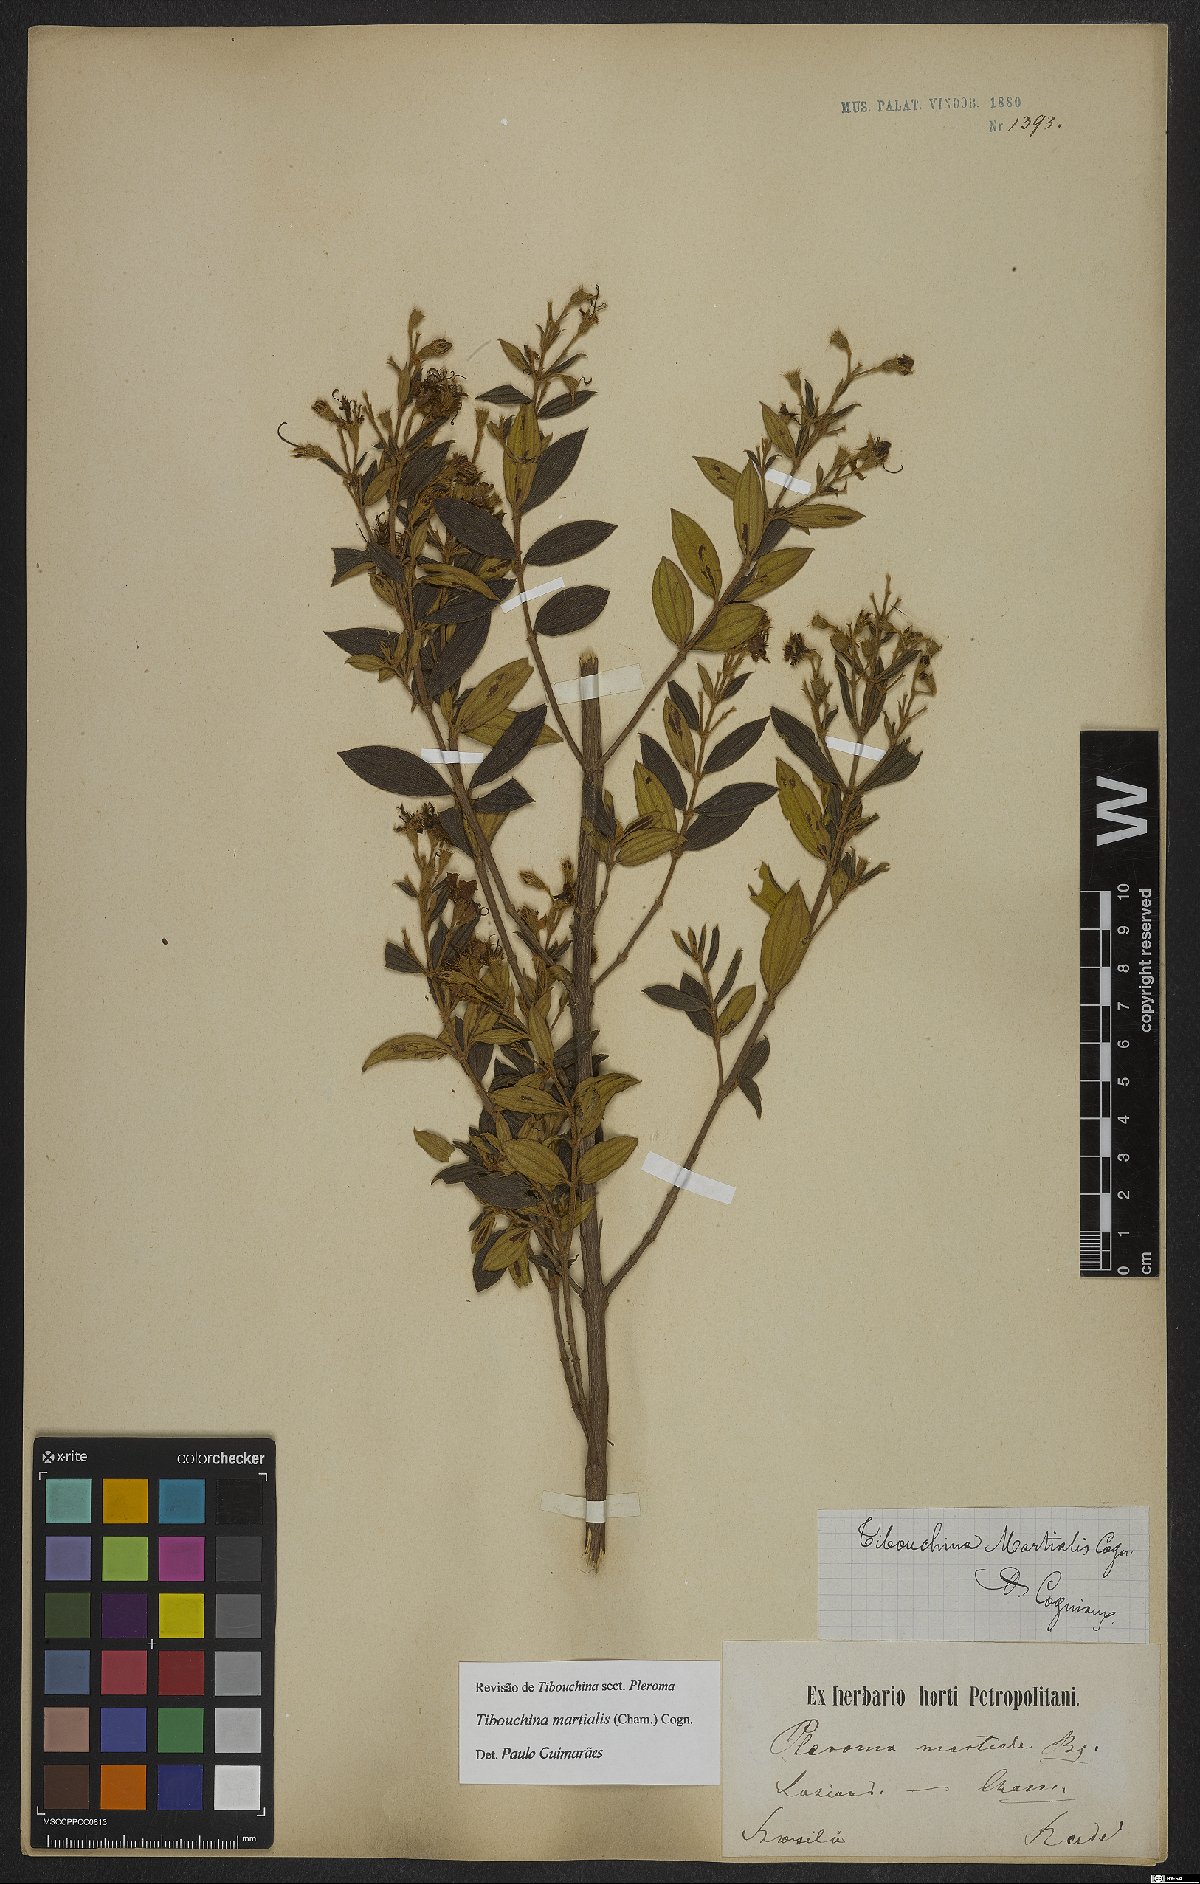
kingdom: Plantae
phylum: Tracheophyta
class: Magnoliopsida
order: Myrtales
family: Melastomataceae
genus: Pleroma
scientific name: Pleroma martiale
